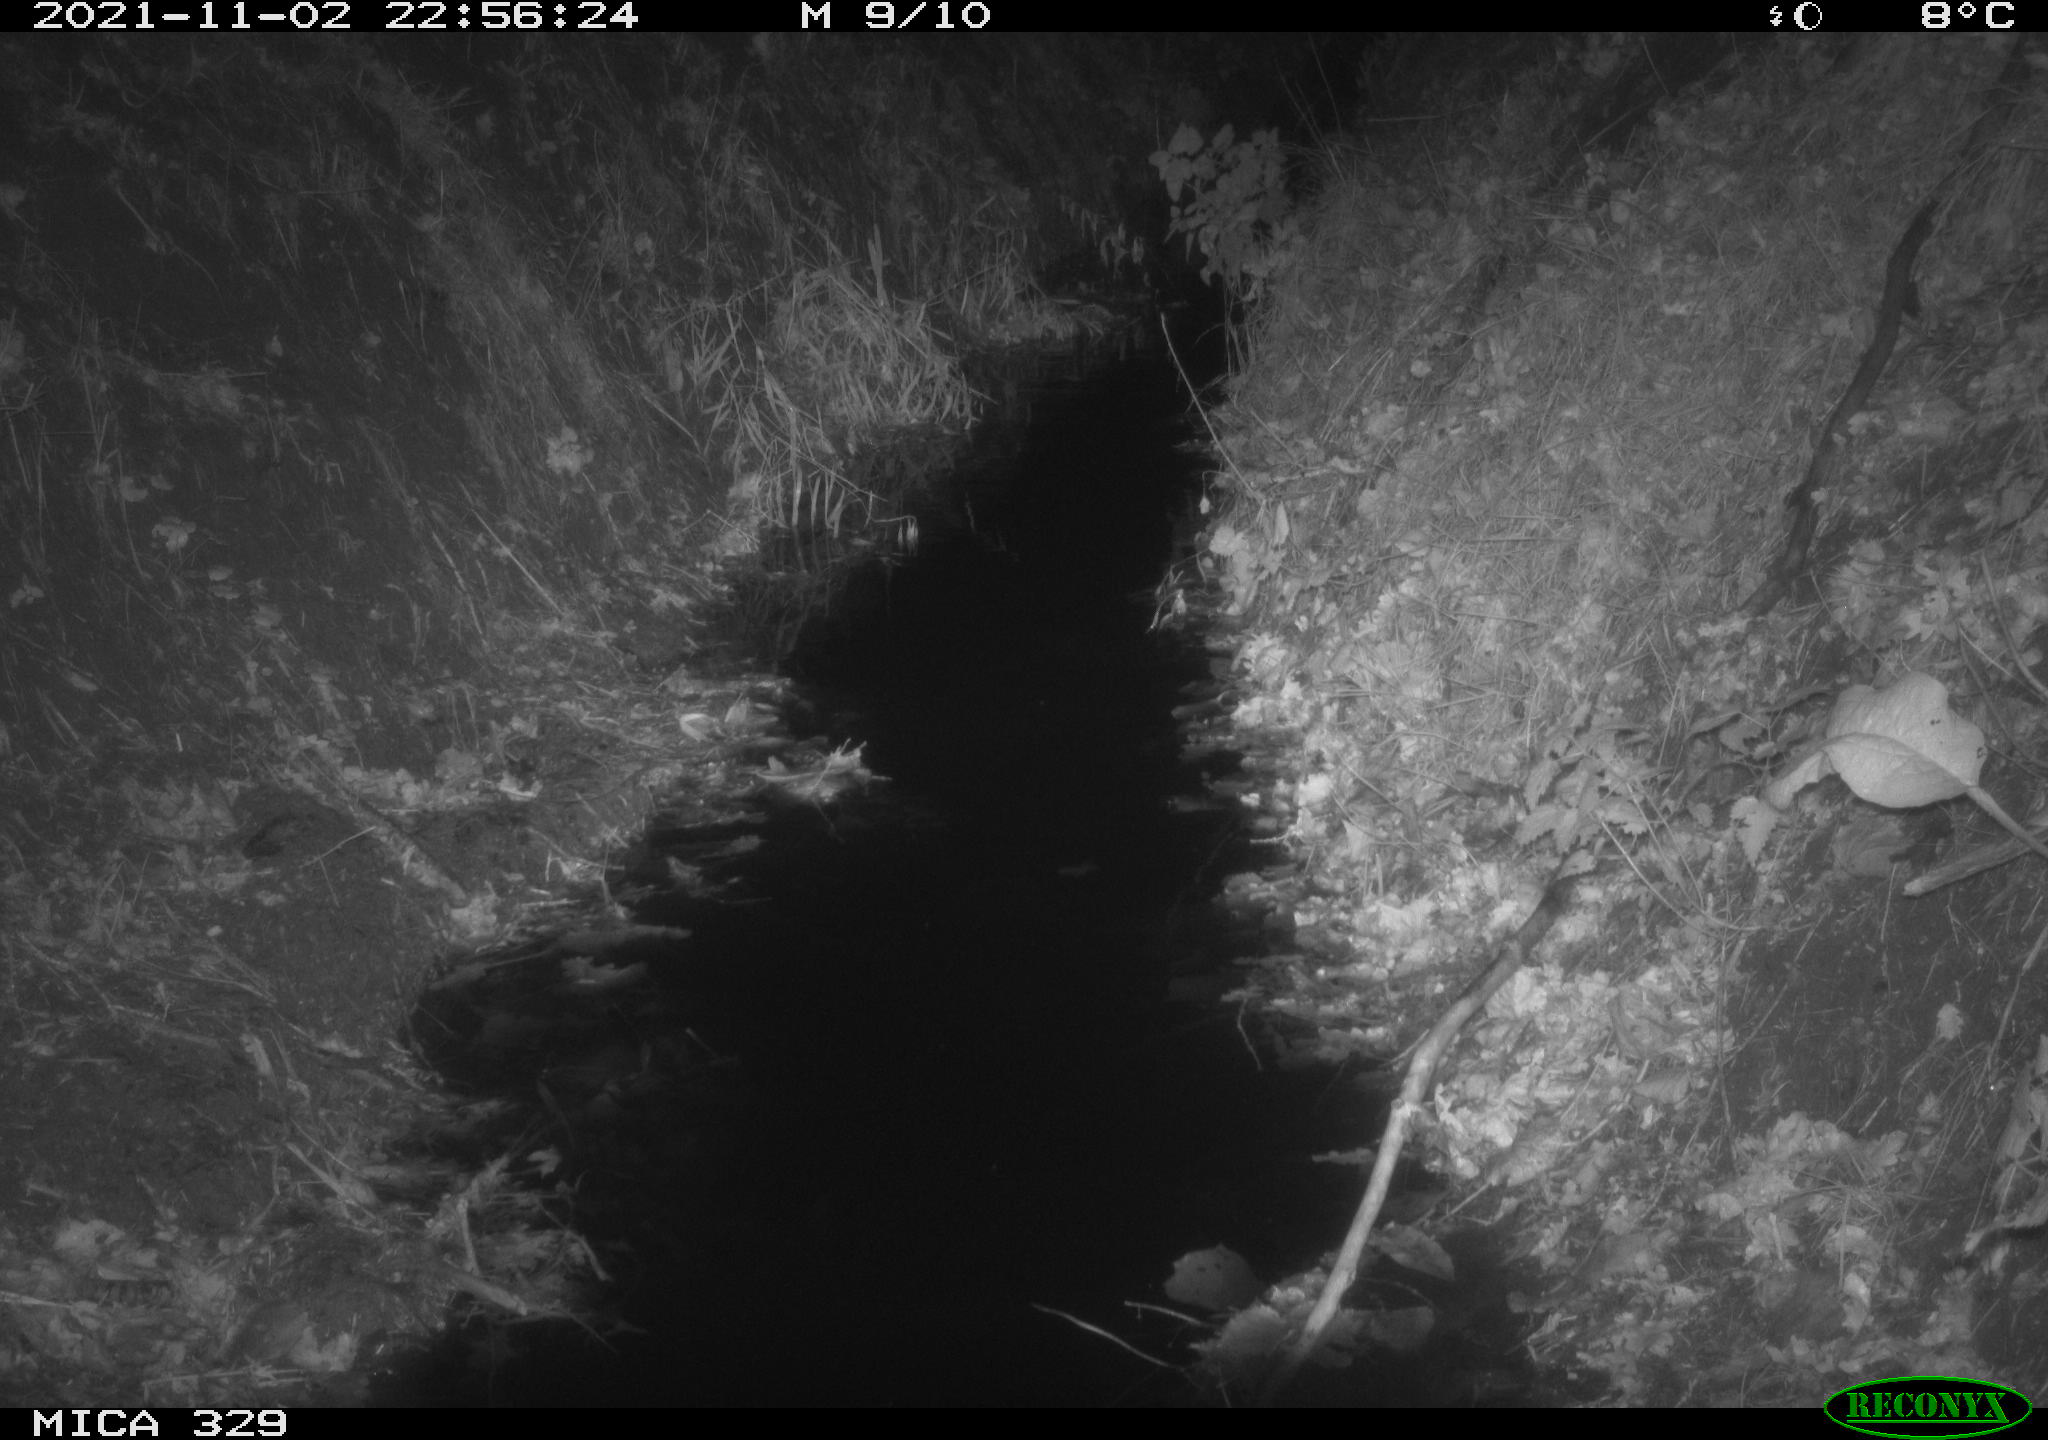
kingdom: Animalia
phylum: Chordata
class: Mammalia
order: Rodentia
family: Muridae
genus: Rattus
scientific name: Rattus norvegicus
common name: Brown rat
